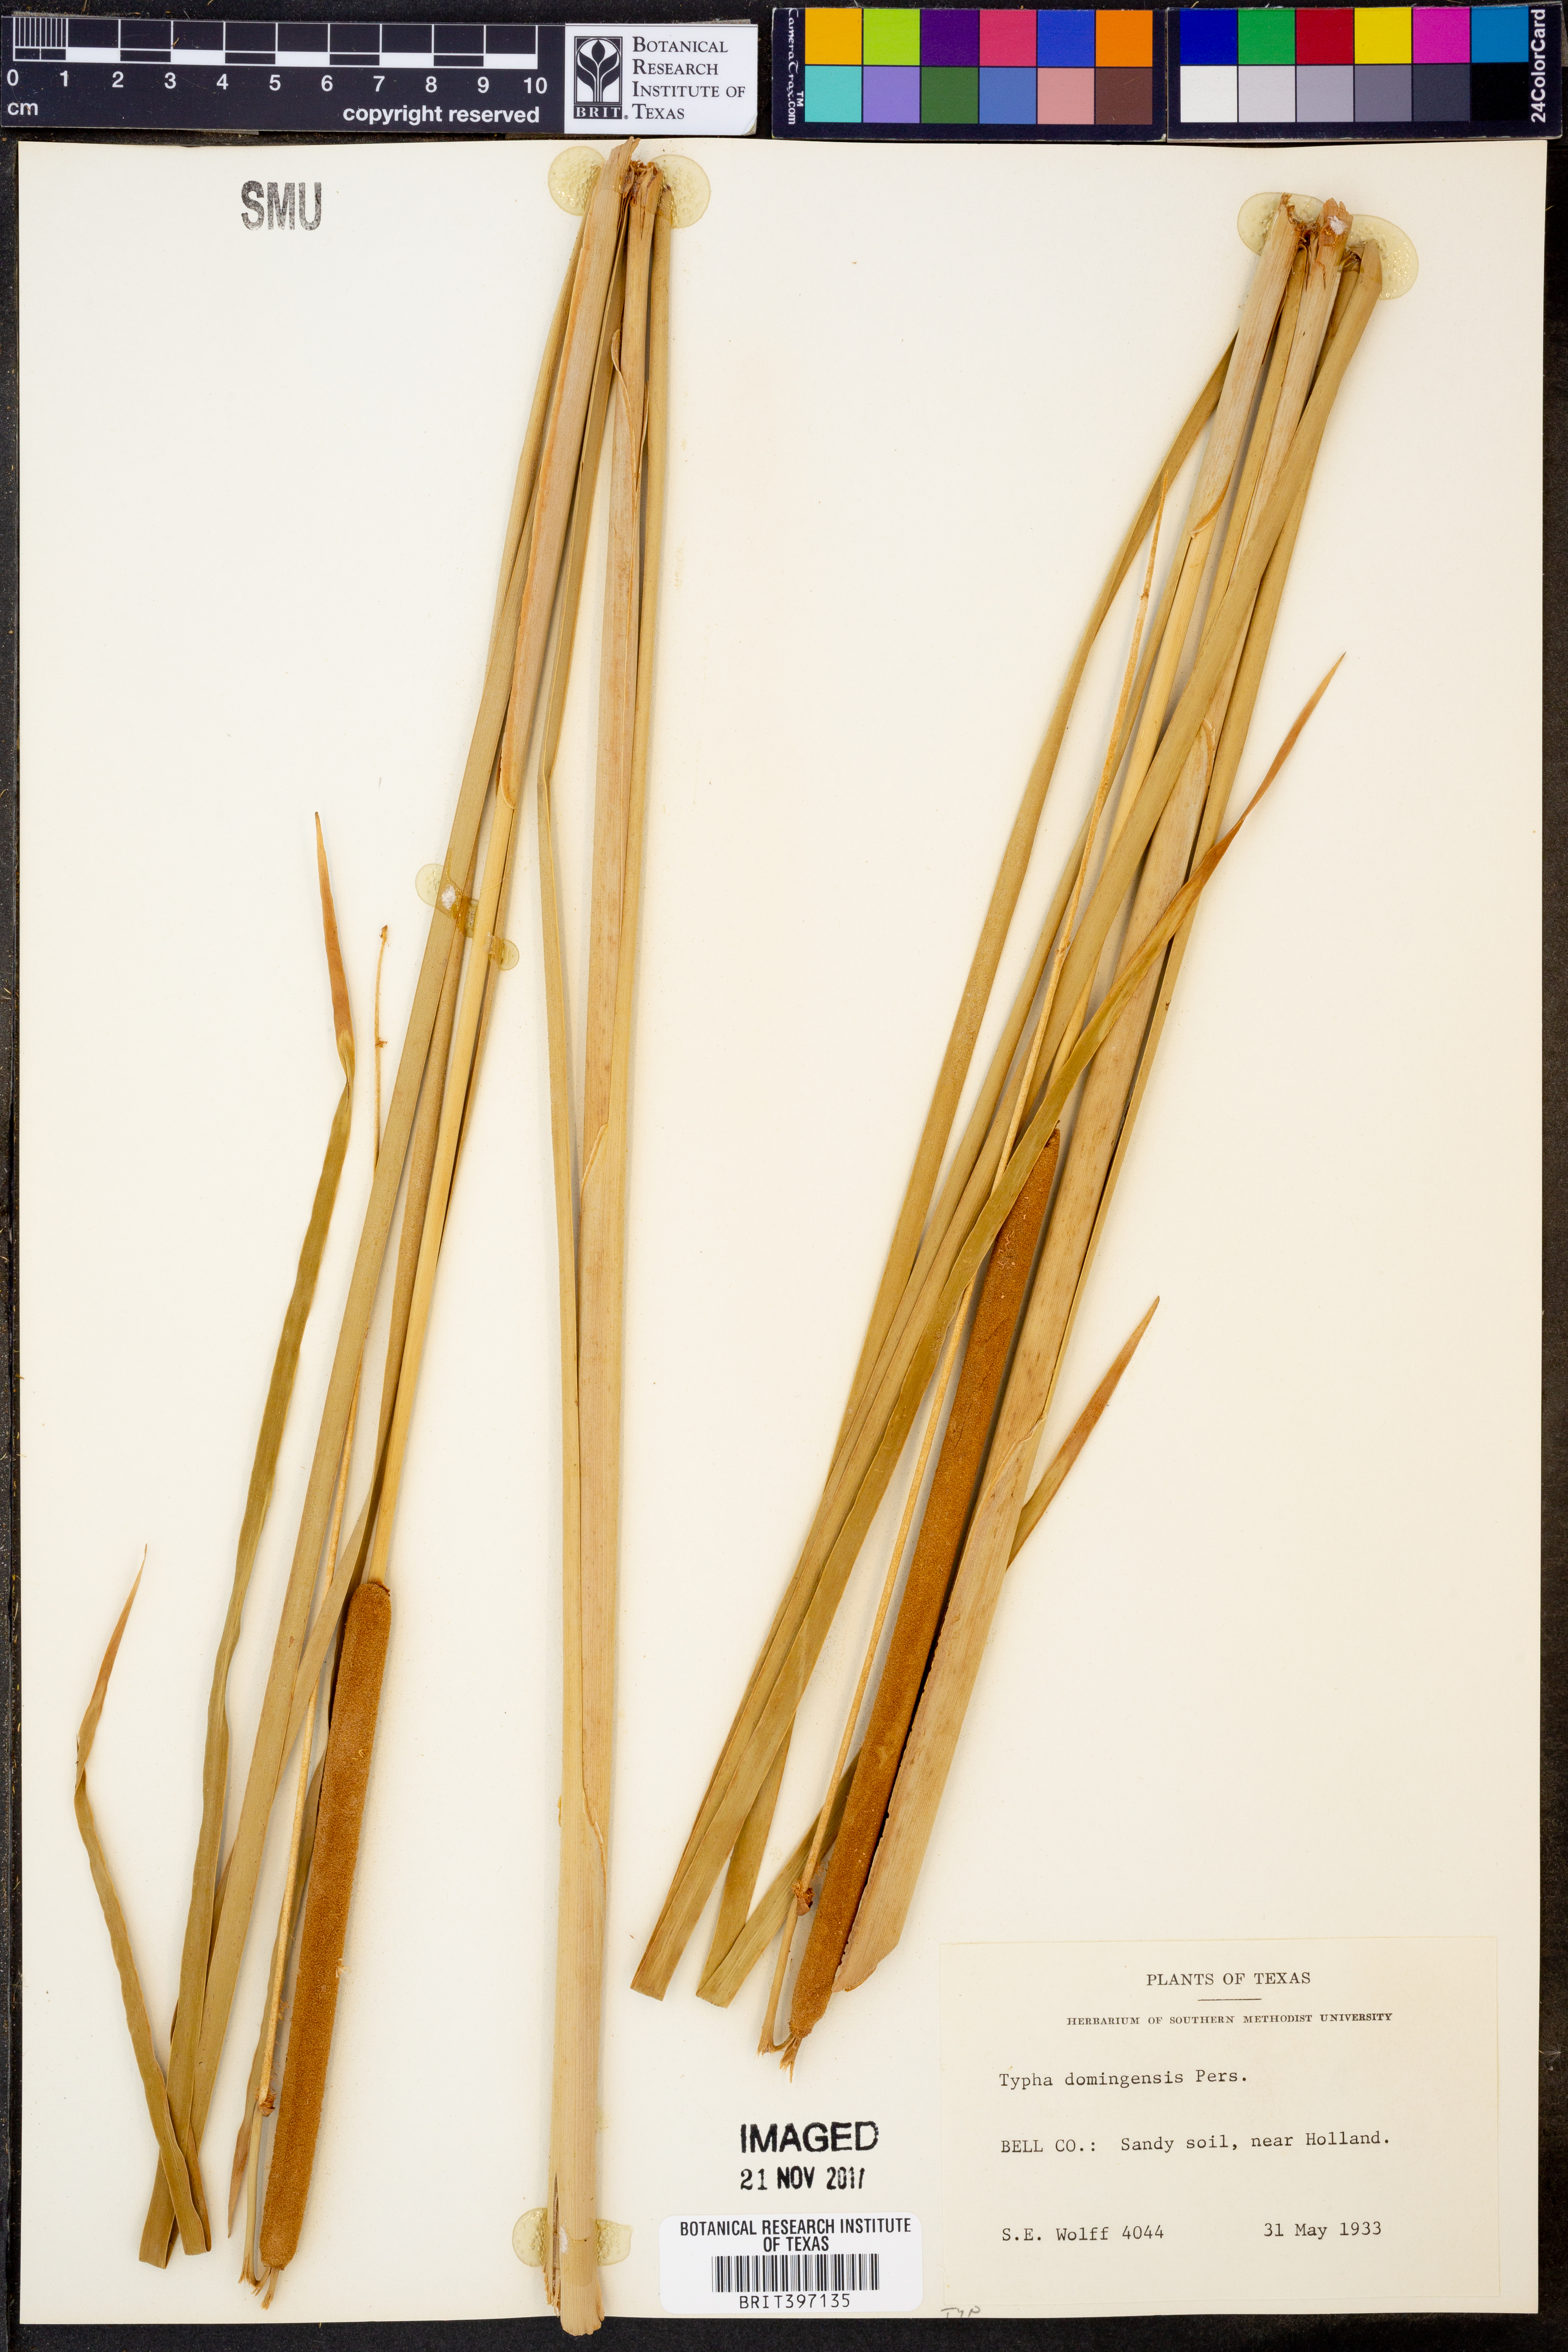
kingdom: Plantae
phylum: Tracheophyta
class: Liliopsida
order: Poales
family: Typhaceae
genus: Typha
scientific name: Typha domingensis
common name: Southern cattail
